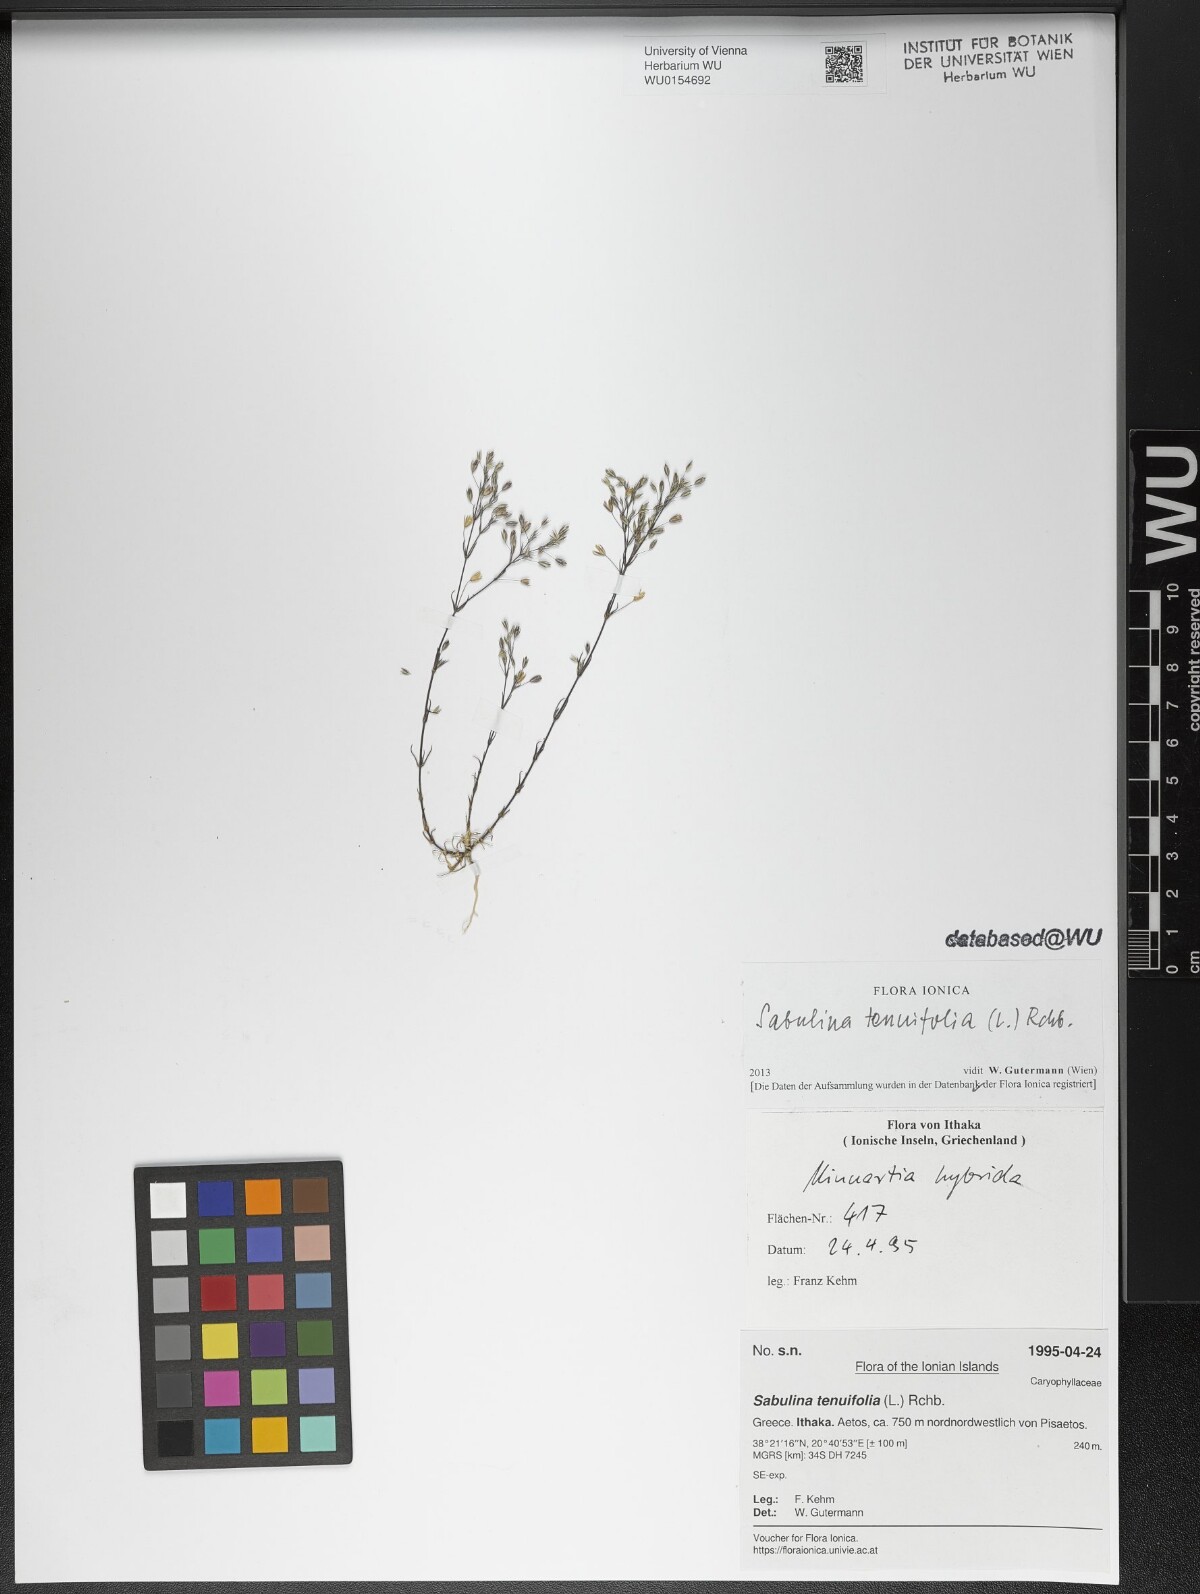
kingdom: Plantae
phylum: Tracheophyta
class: Magnoliopsida
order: Caryophyllales
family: Caryophyllaceae
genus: Sabulina
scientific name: Sabulina tenuifolia
